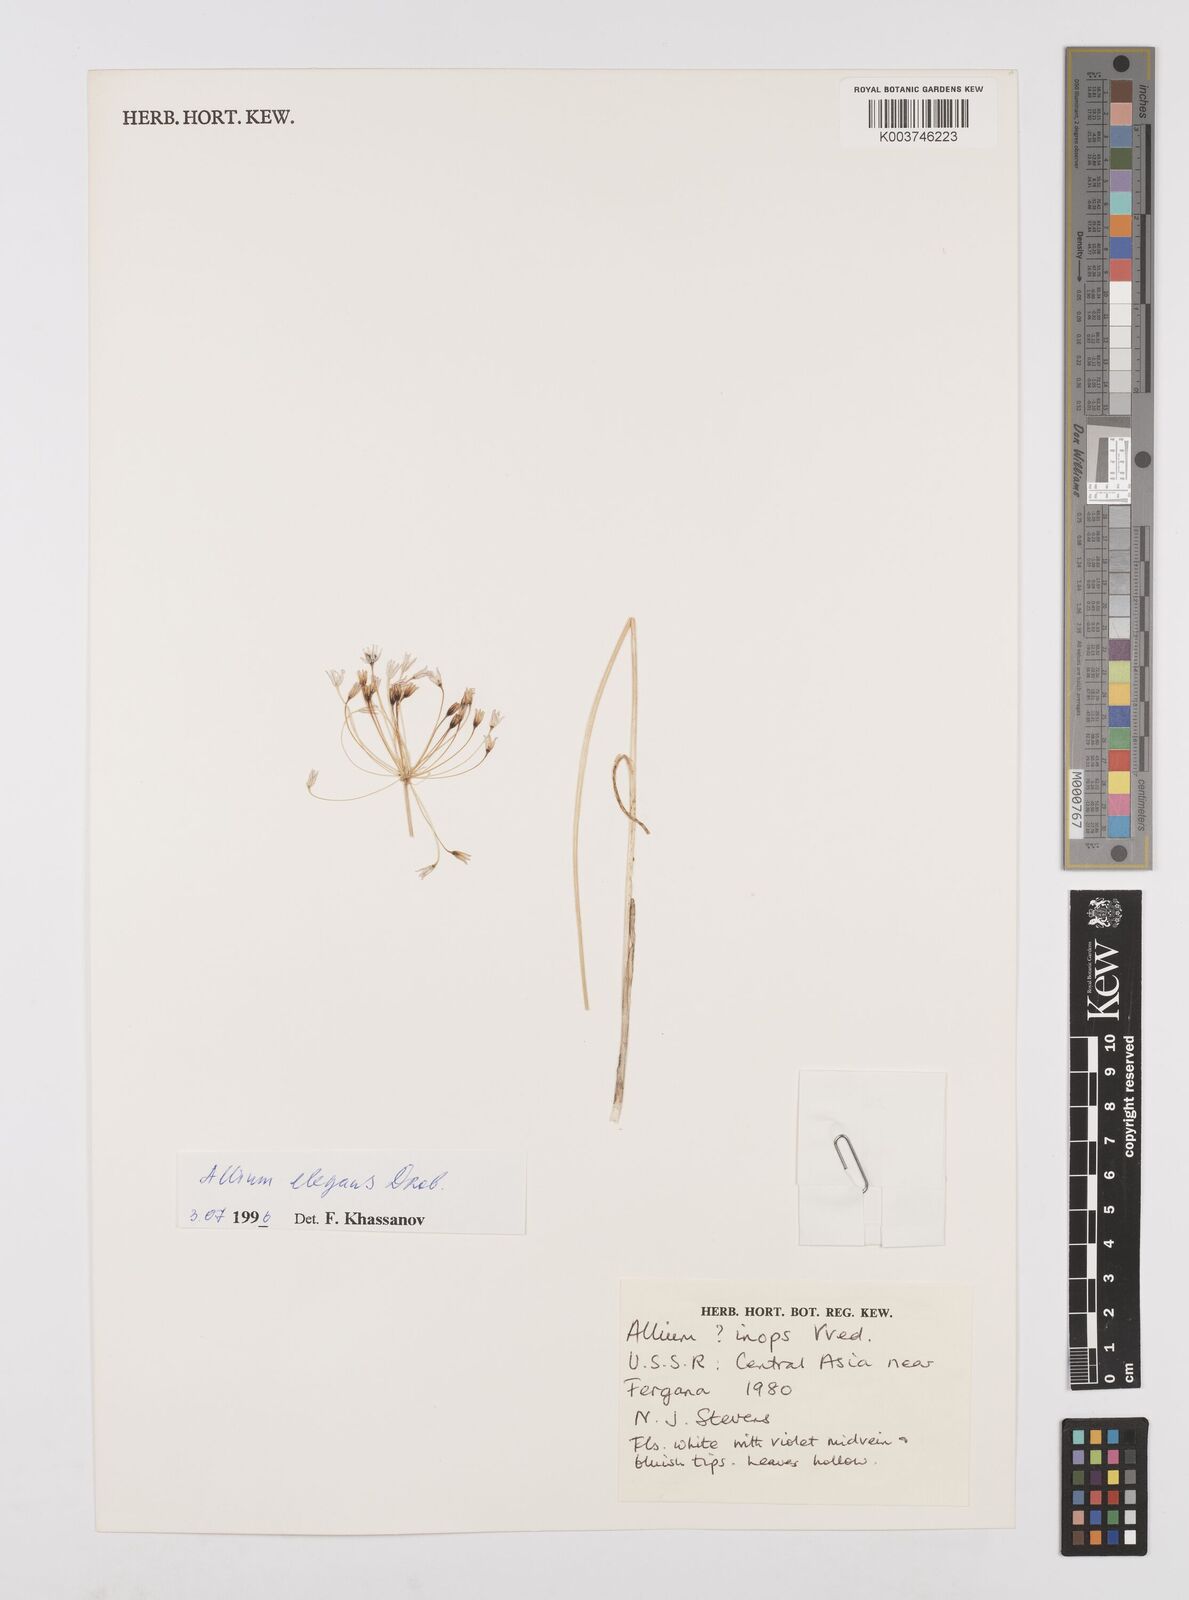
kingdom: Plantae
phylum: Tracheophyta
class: Liliopsida
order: Asparagales
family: Amaryllidaceae
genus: Allium
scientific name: Allium inops
